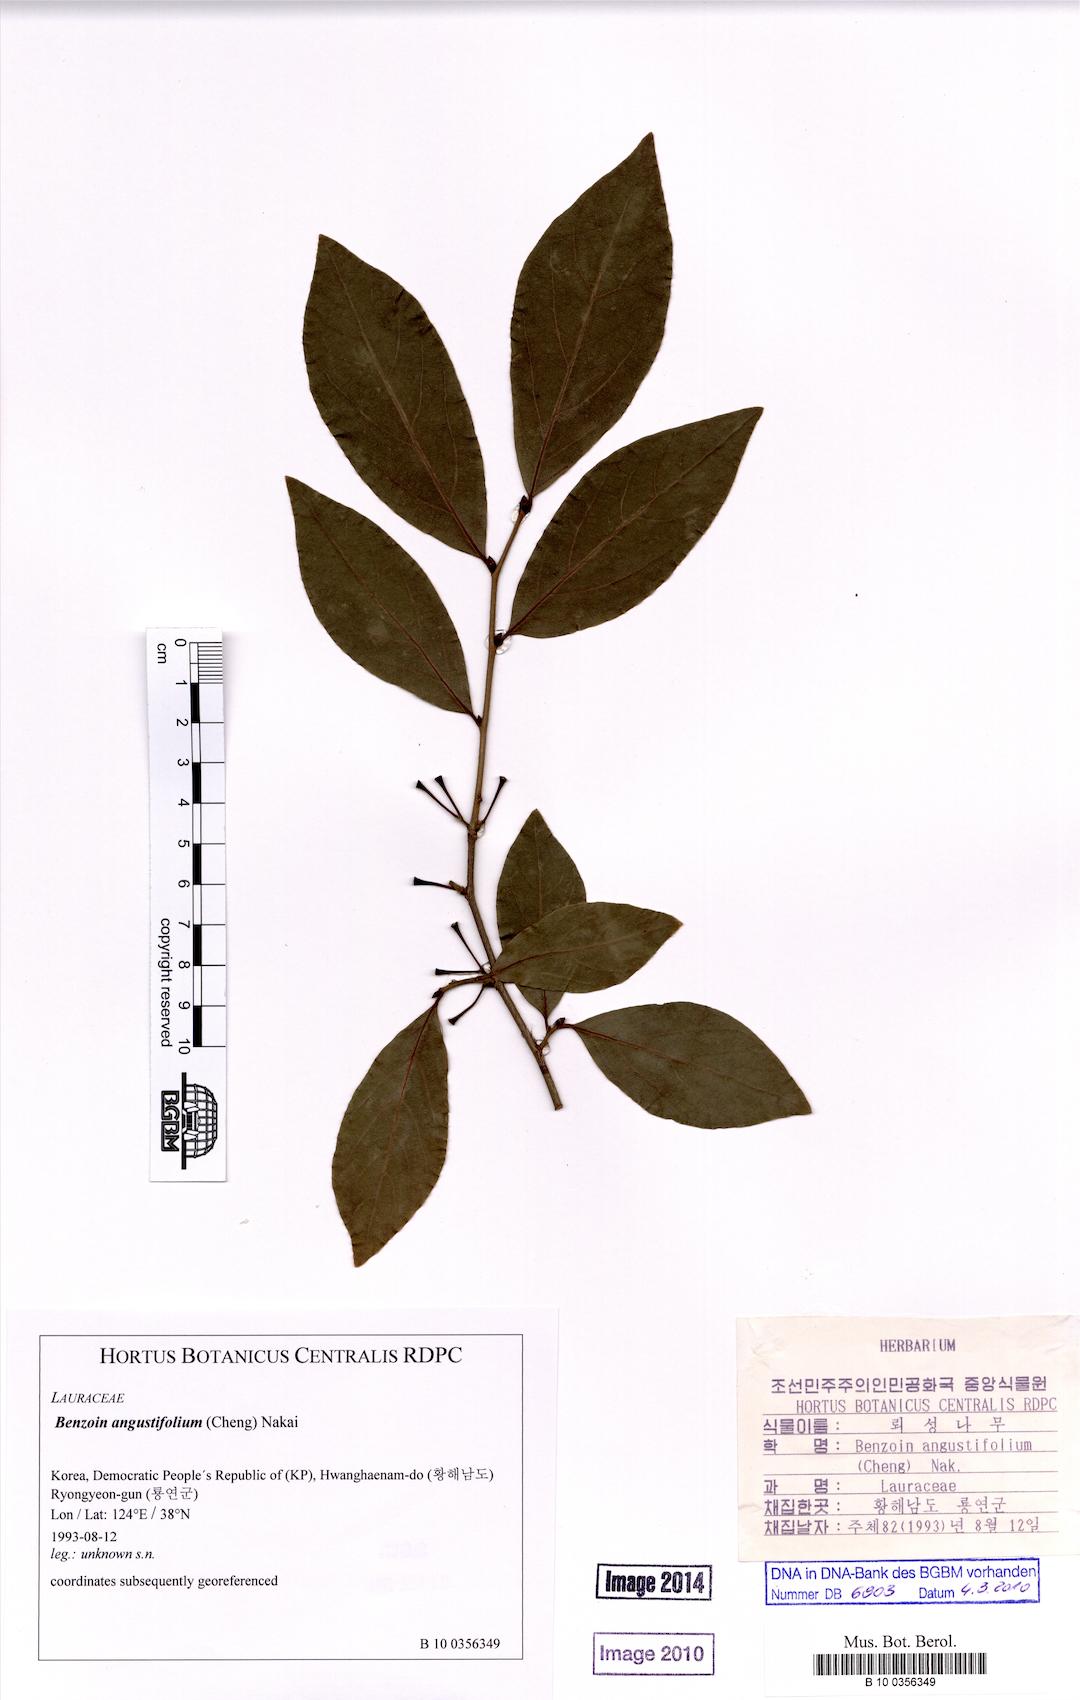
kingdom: Plantae
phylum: Tracheophyta
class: Magnoliopsida
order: Laurales
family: Lauraceae
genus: Lindera
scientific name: Lindera angustifolia
